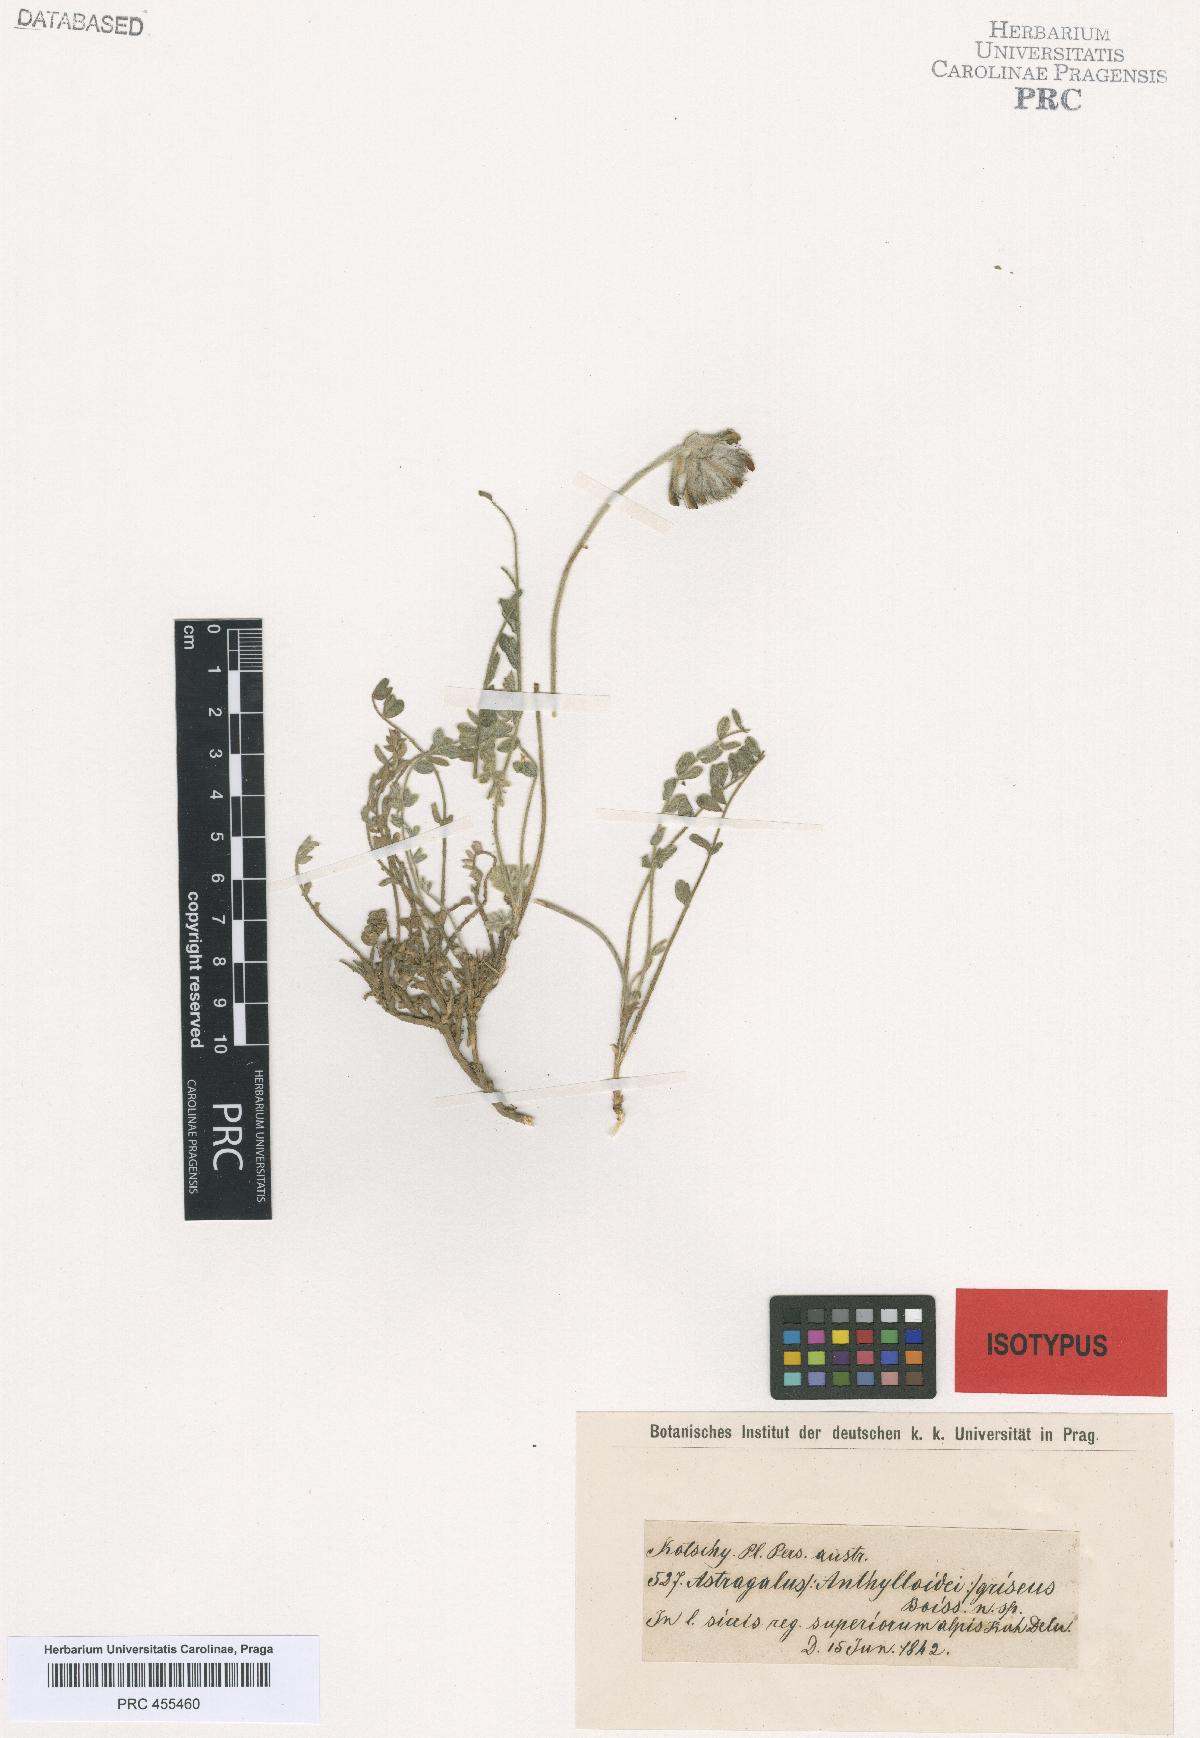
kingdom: Plantae
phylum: Tracheophyta
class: Magnoliopsida
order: Fabales
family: Fabaceae
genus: Astragalus
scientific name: Astragalus griseus
